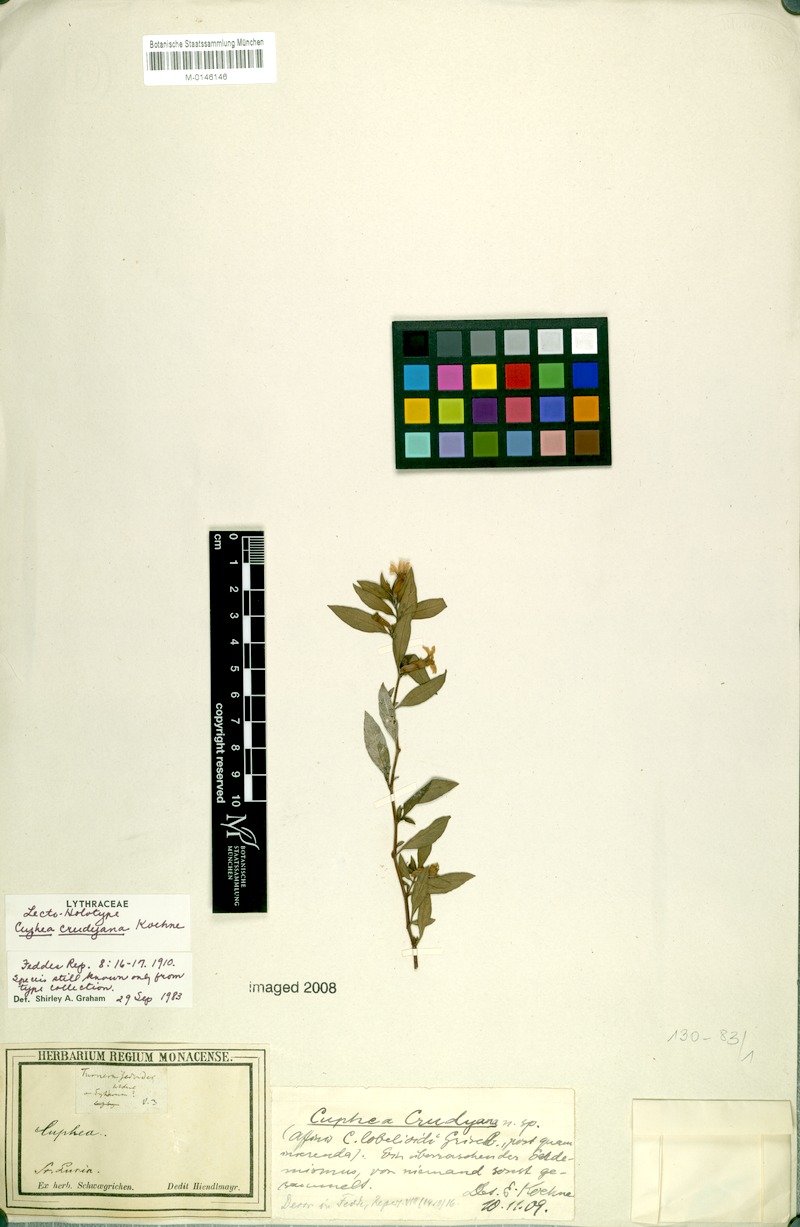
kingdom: Plantae
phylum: Tracheophyta
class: Magnoliopsida
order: Myrtales
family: Lythraceae
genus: Cuphea
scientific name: Cuphea crudyana
